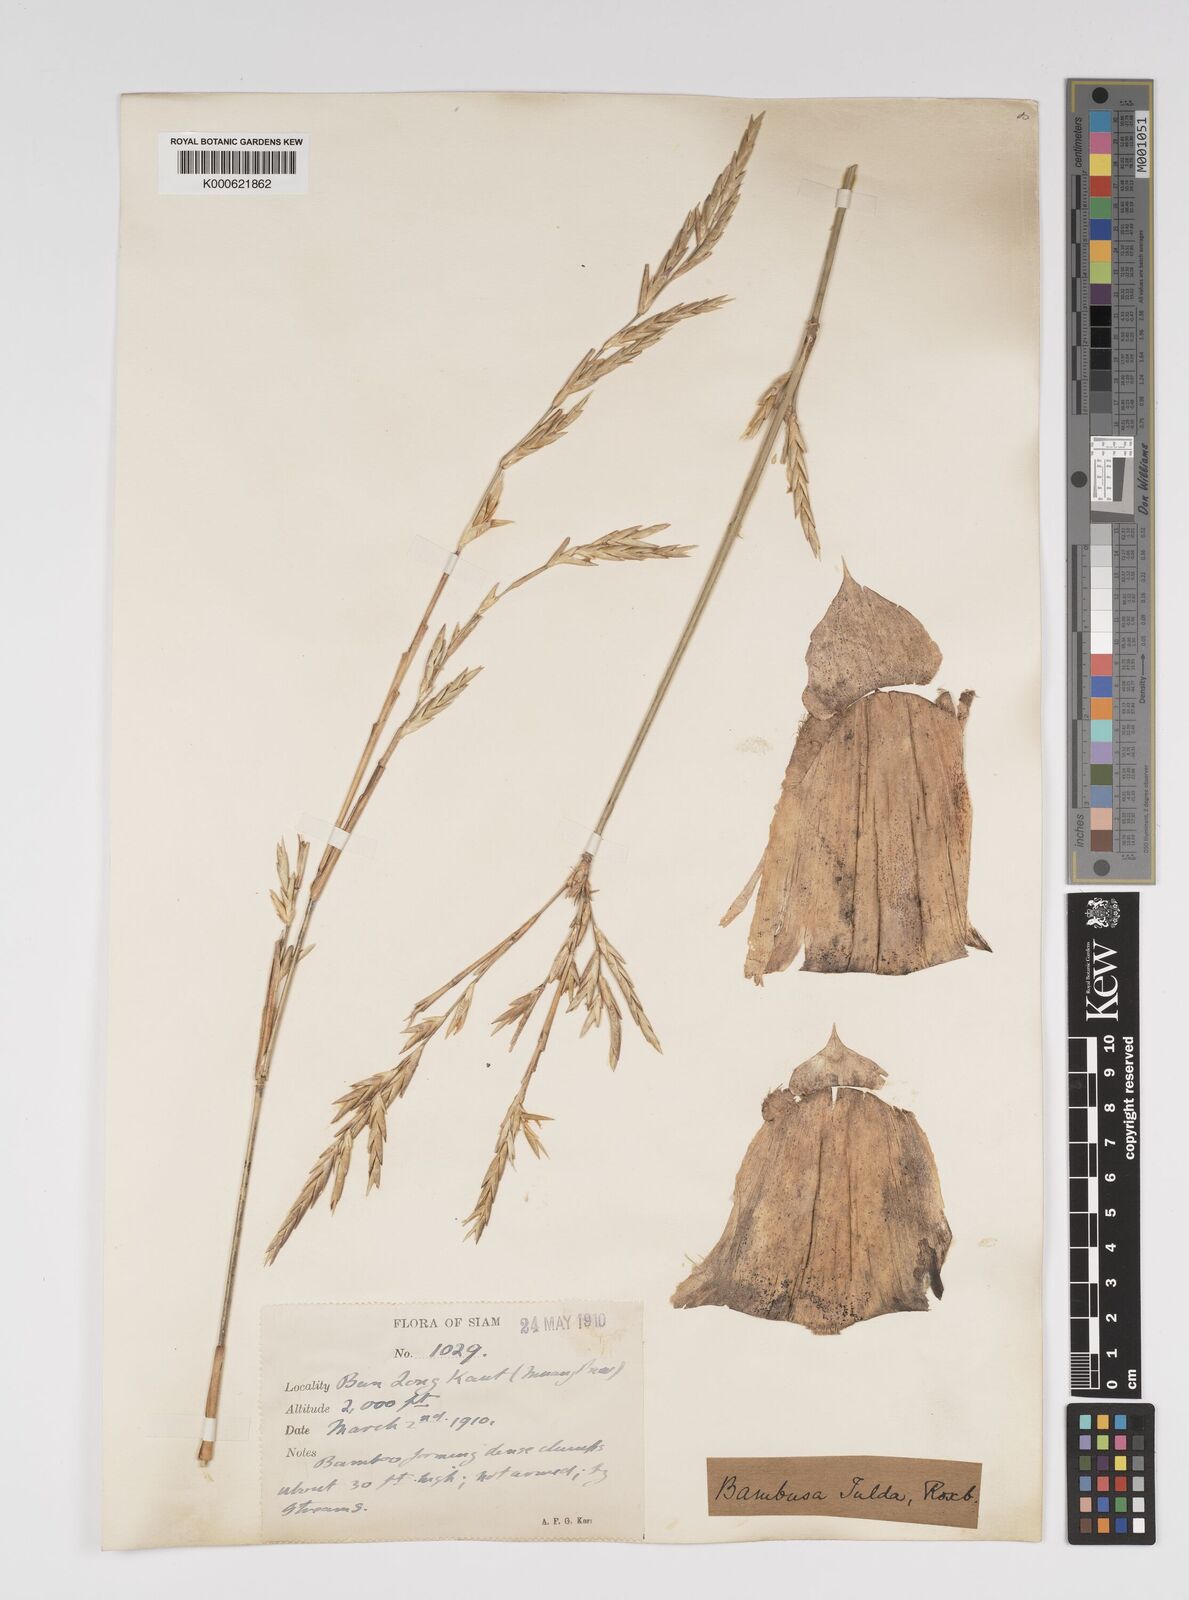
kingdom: Plantae
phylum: Tracheophyta
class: Liliopsida
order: Poales
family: Poaceae
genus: Bambusa
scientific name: Bambusa tulda
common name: Bengal bamboo
